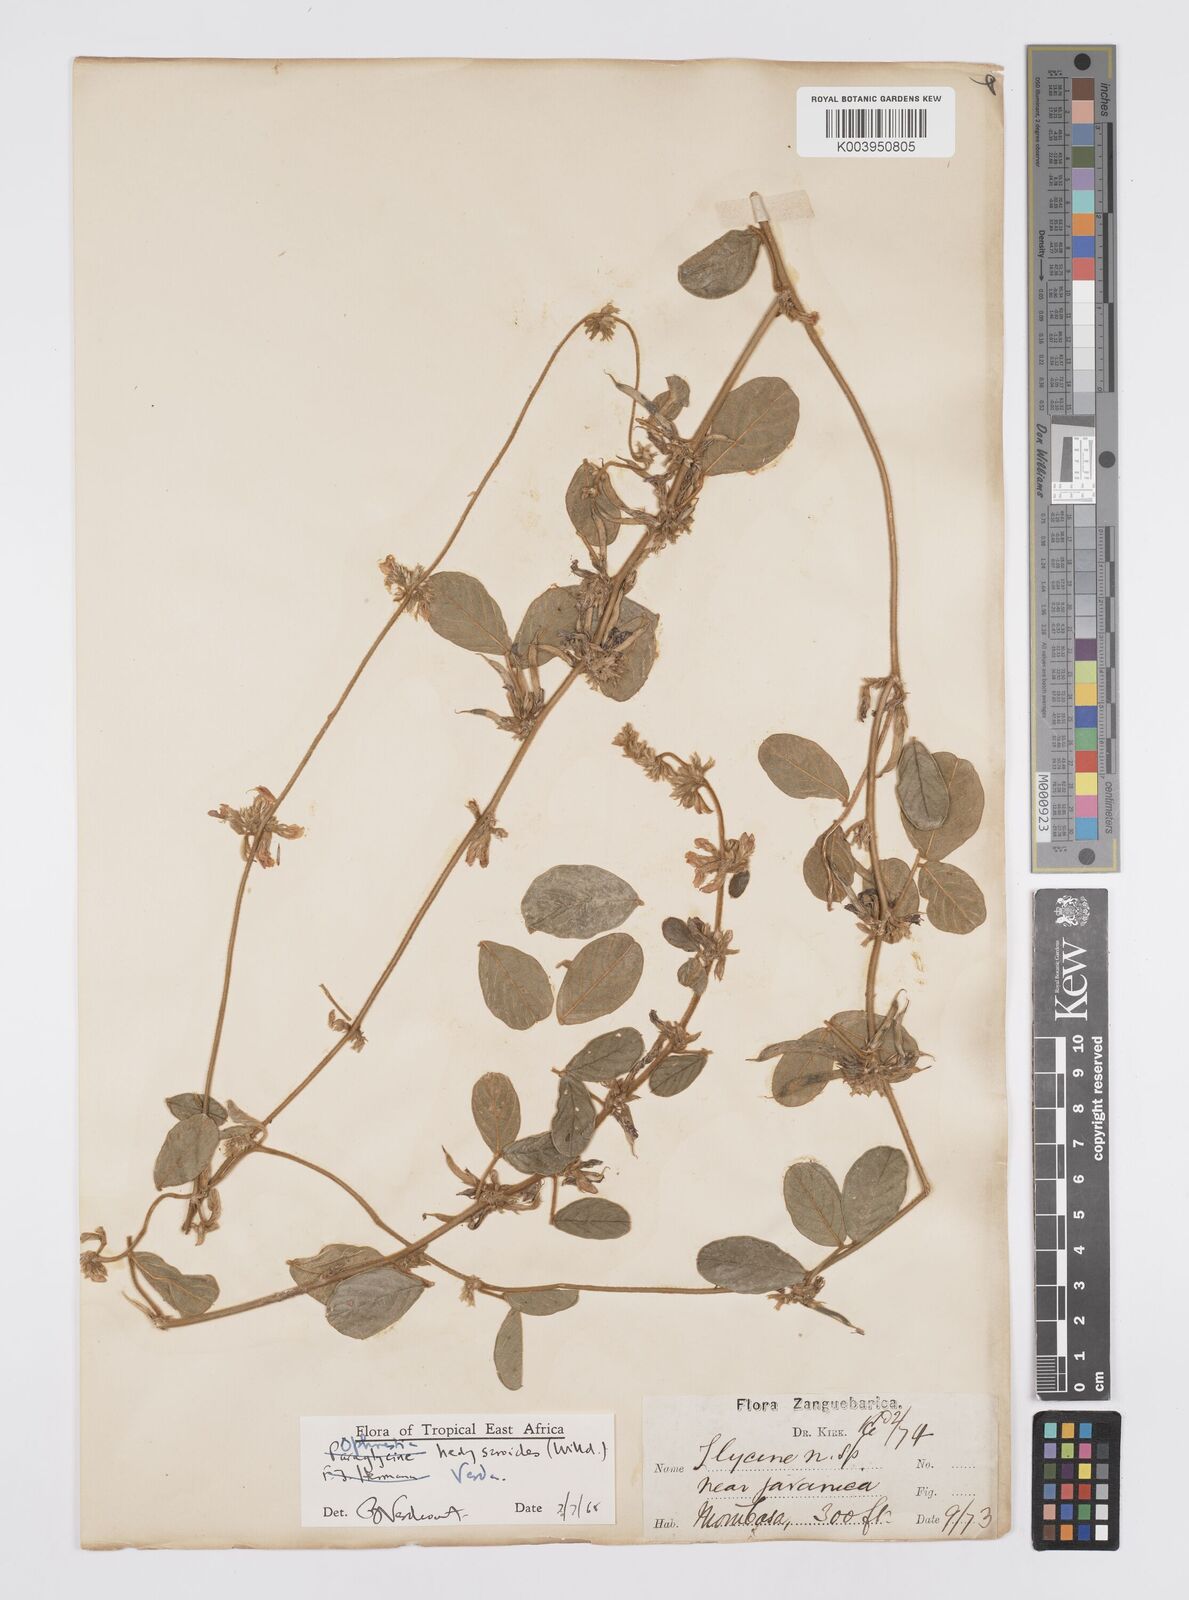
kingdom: Plantae
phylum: Tracheophyta
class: Magnoliopsida
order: Fabales
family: Fabaceae
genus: Ophrestia
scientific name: Ophrestia hedysaroides
